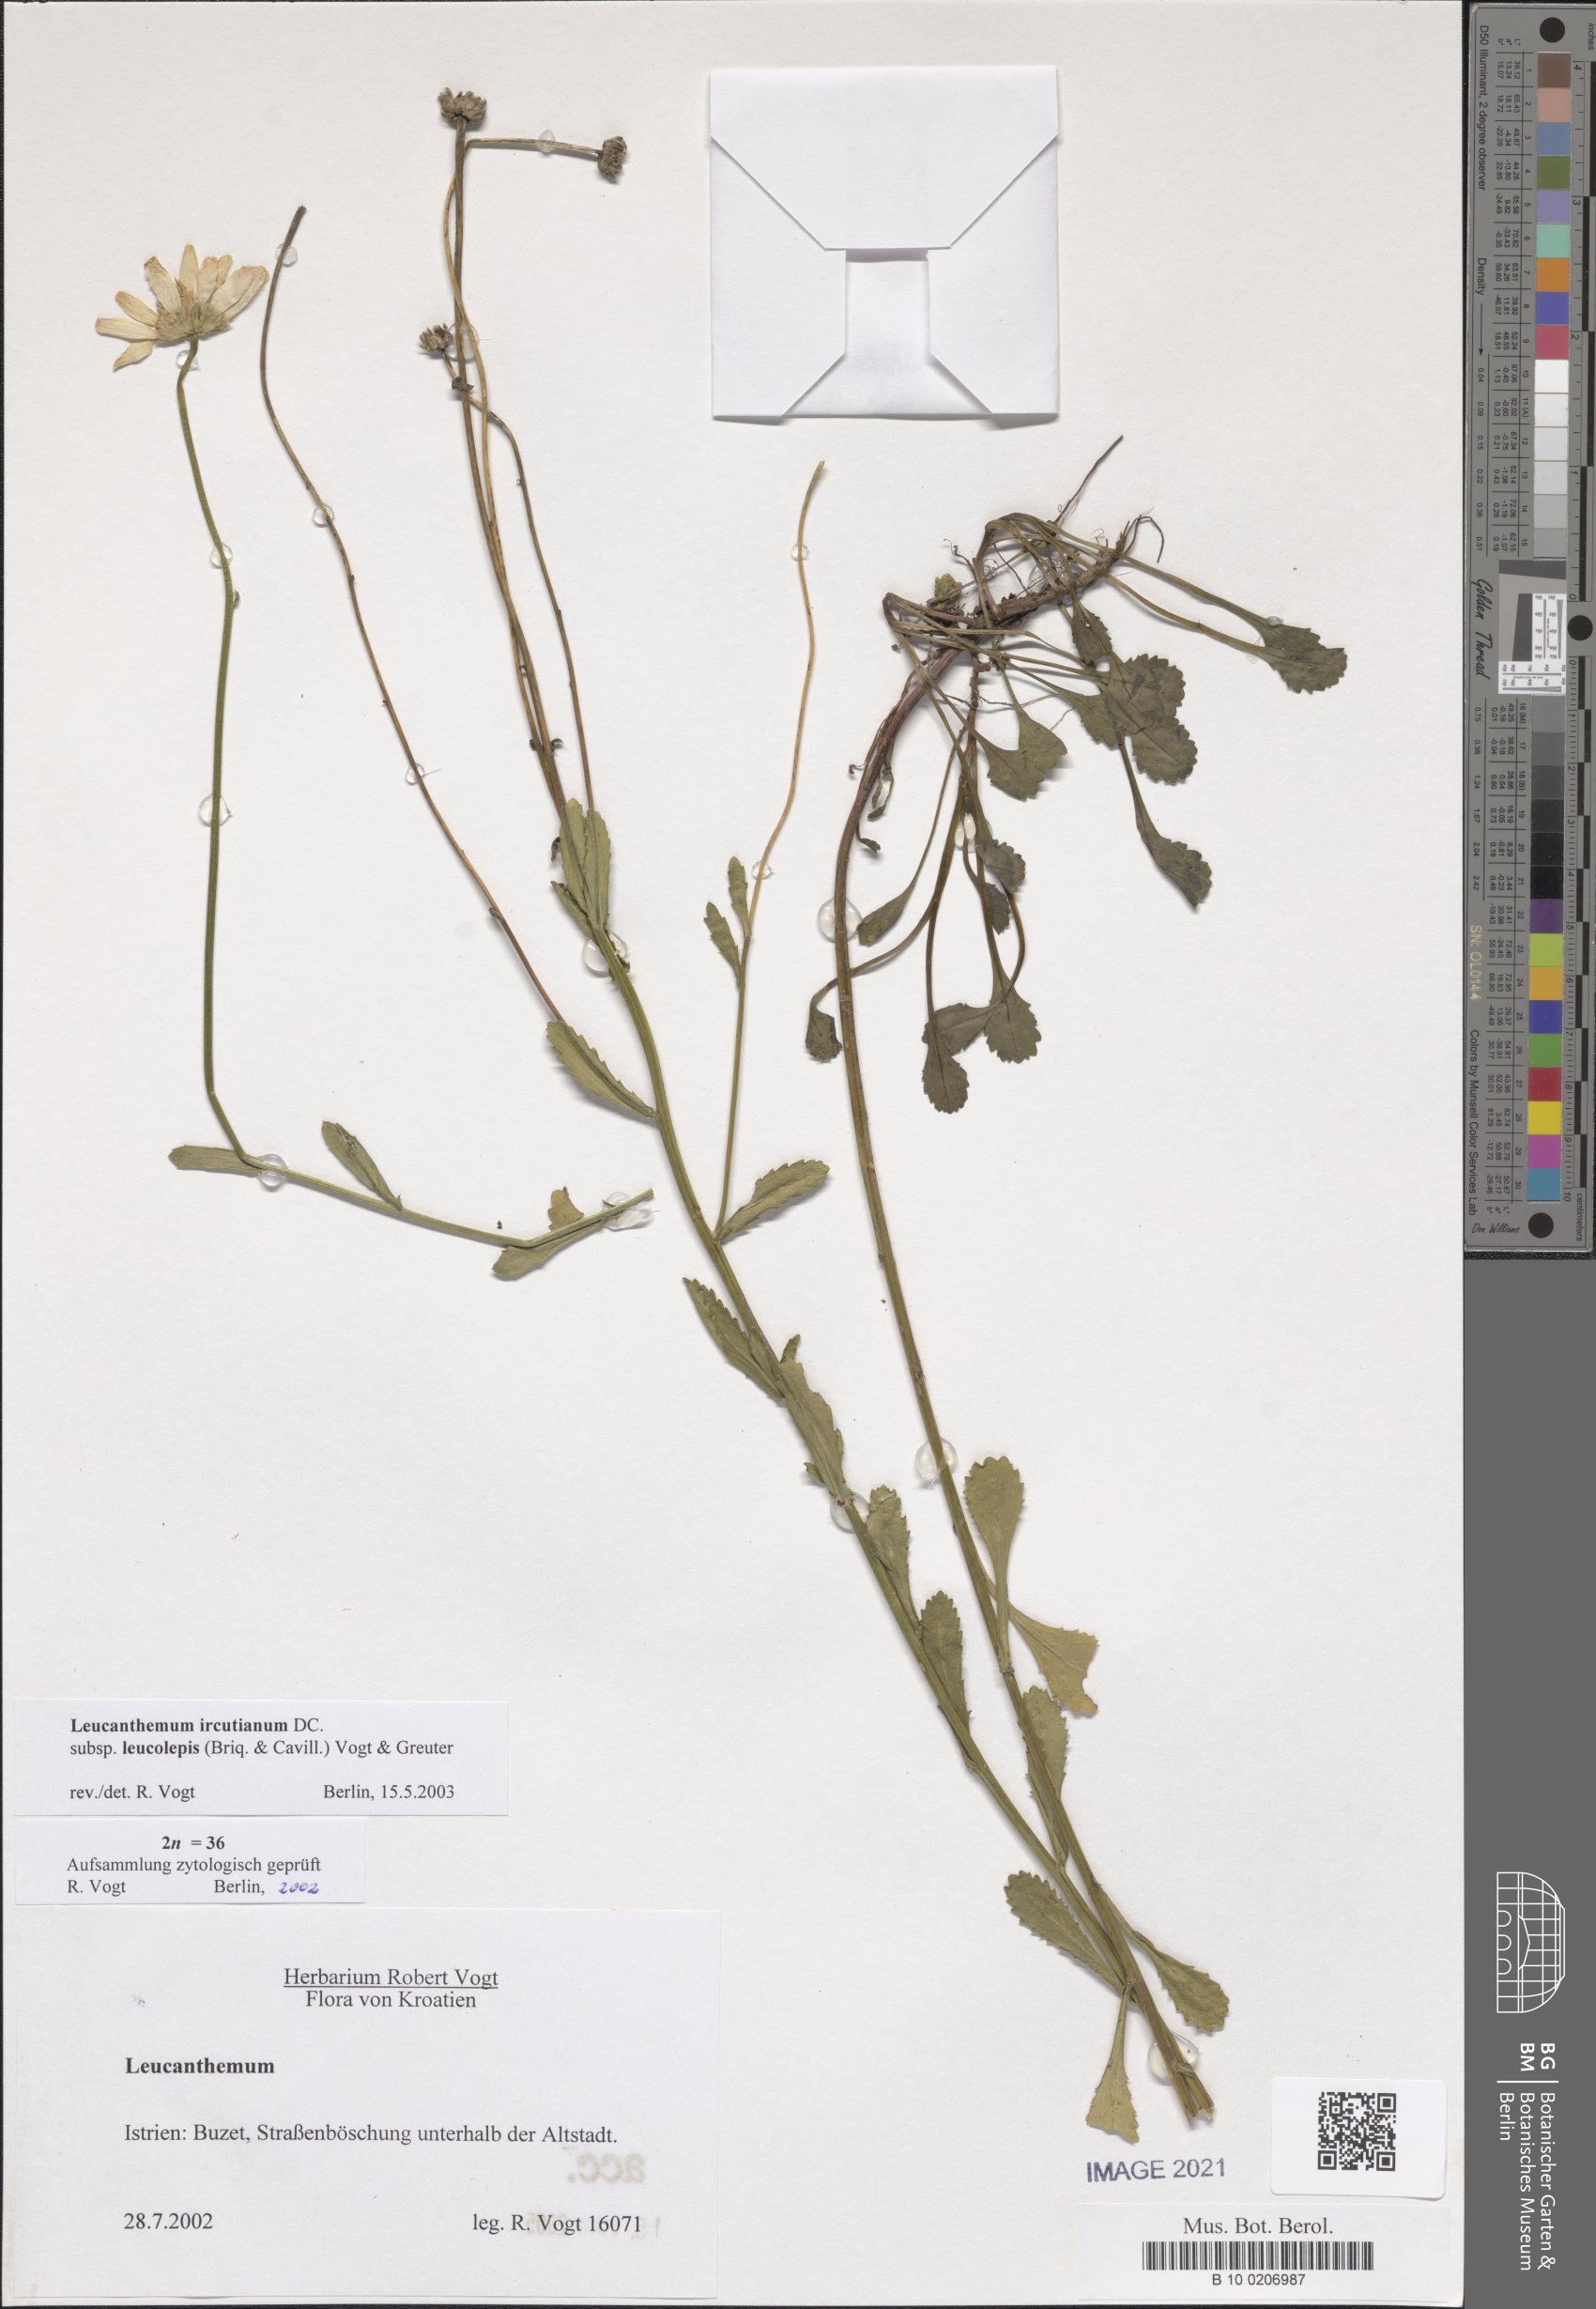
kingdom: Plantae
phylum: Tracheophyta
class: Magnoliopsida
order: Asterales
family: Asteraceae
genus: Leucanthemum
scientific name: Leucanthemum ircutianum
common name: Daisy
